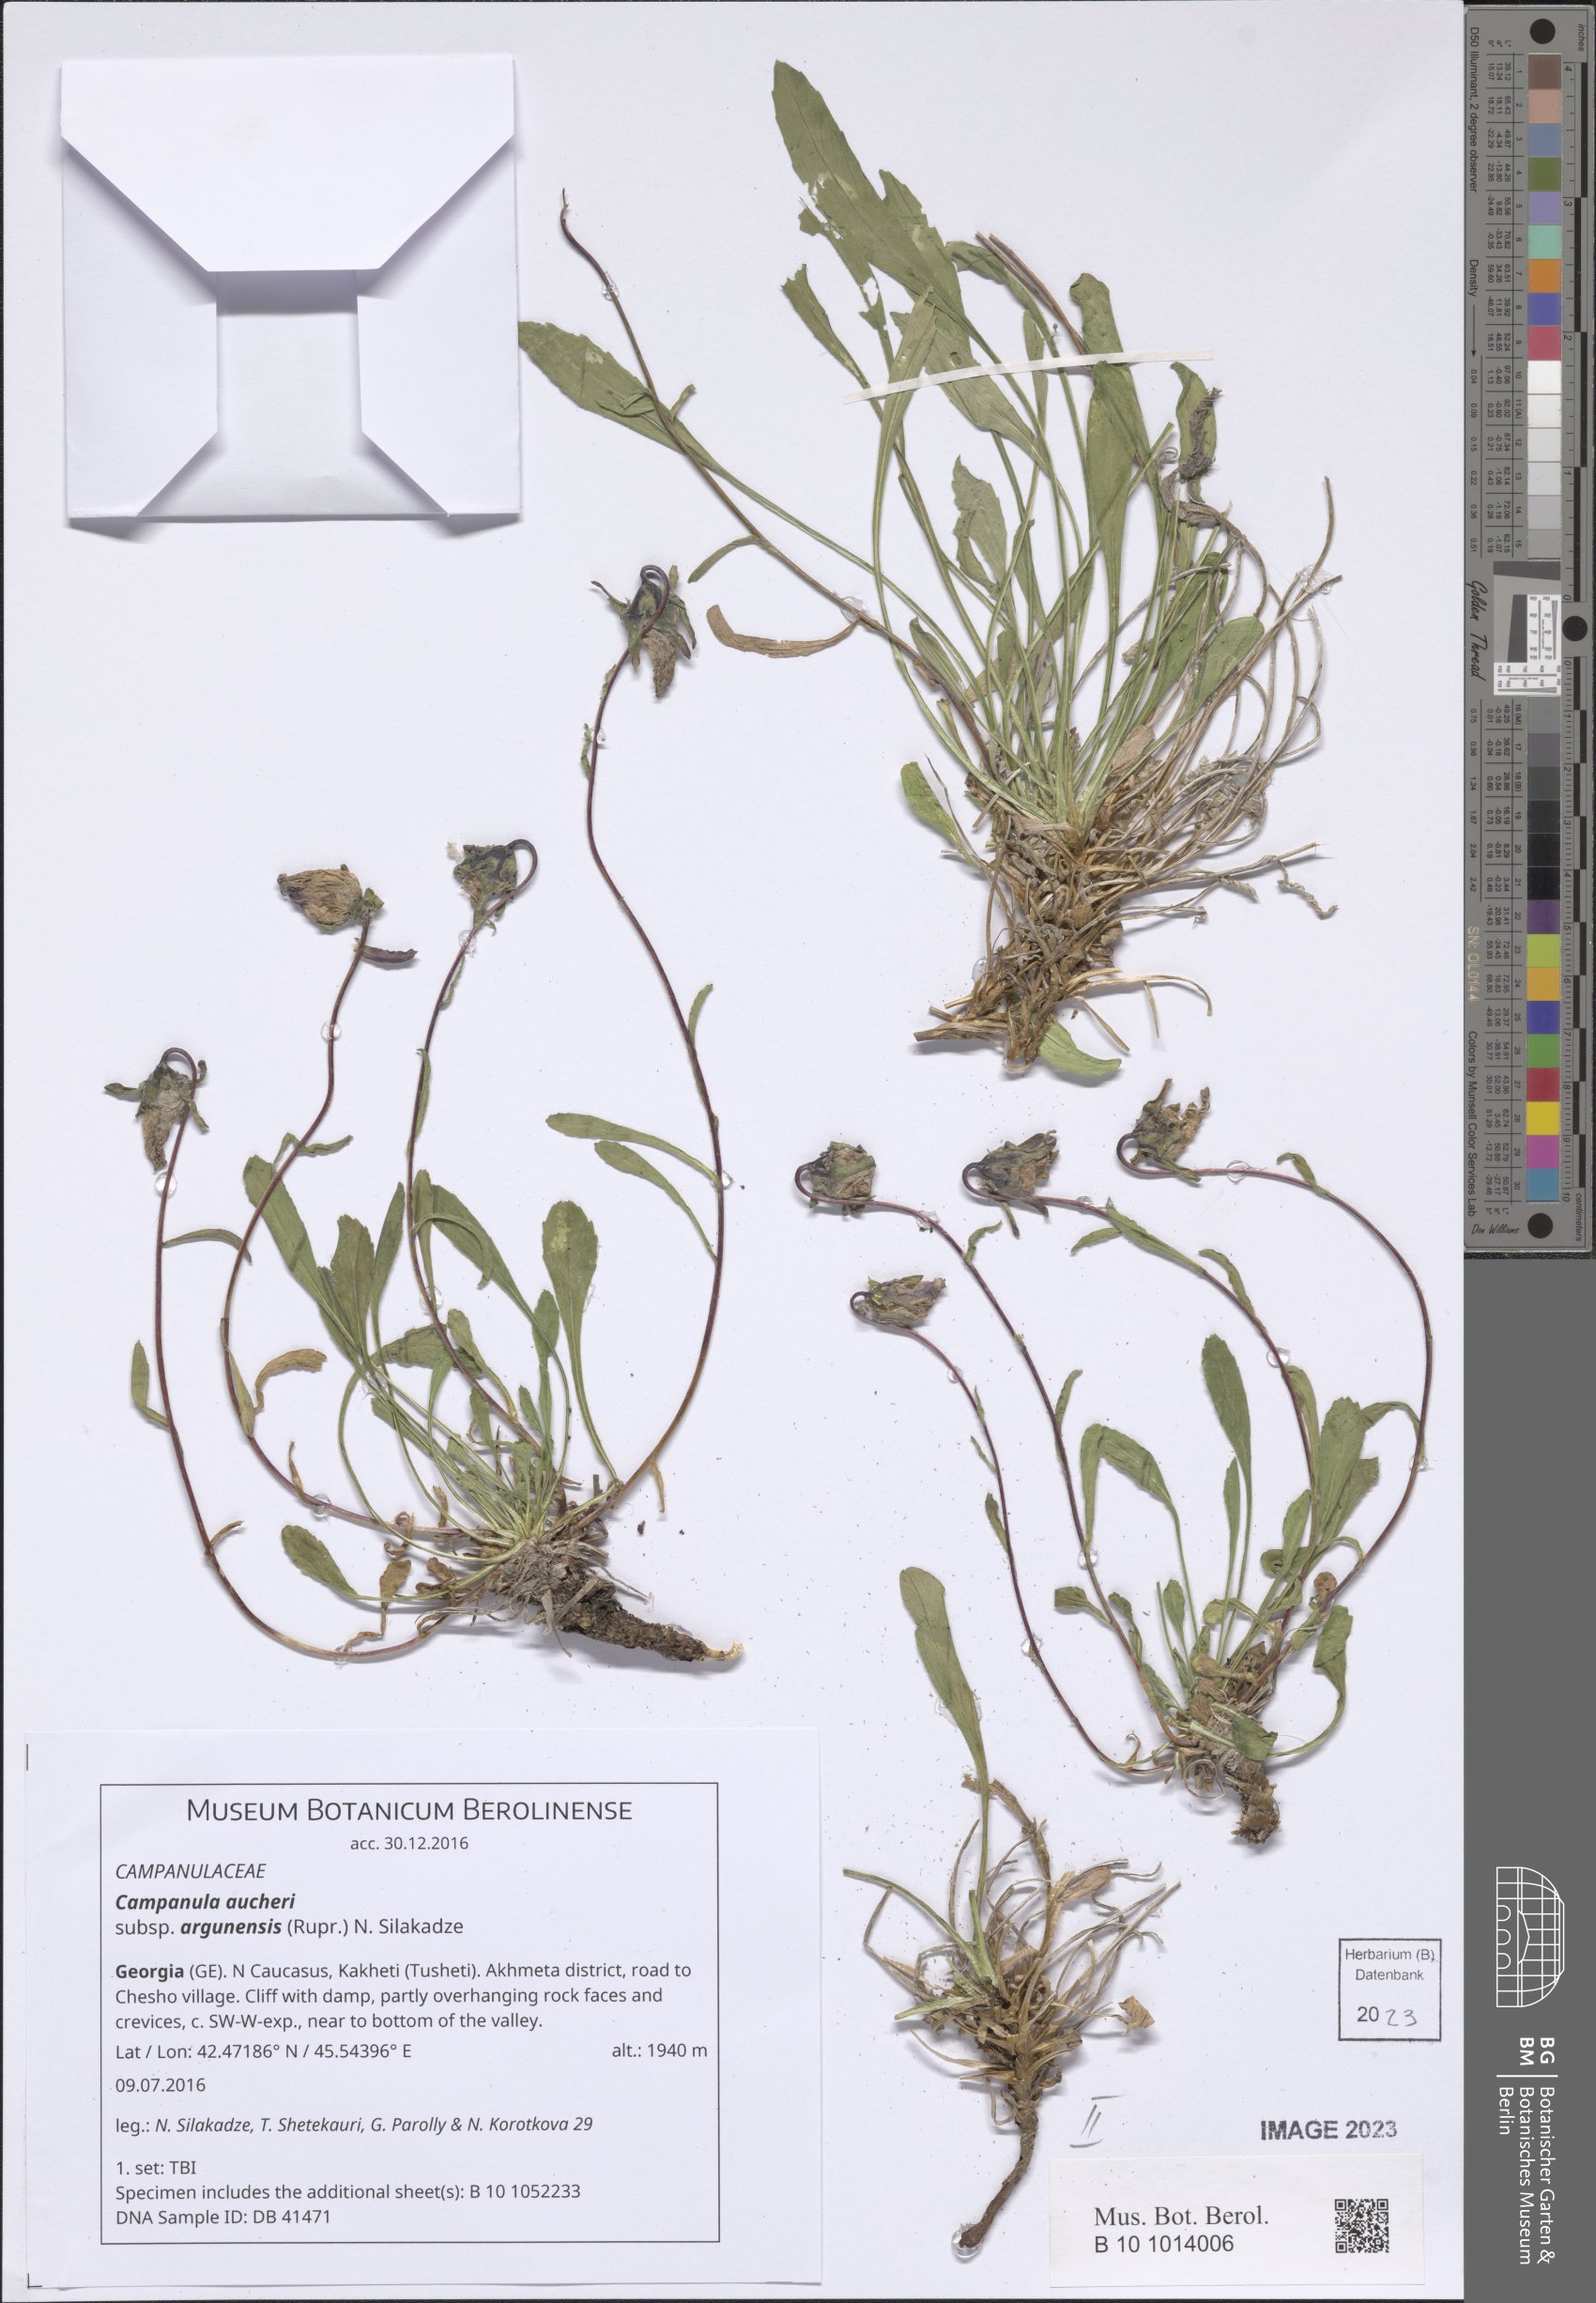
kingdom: Plantae
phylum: Tracheophyta
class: Magnoliopsida
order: Asterales
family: Campanulaceae
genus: Campanula
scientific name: Campanula saxifraga
